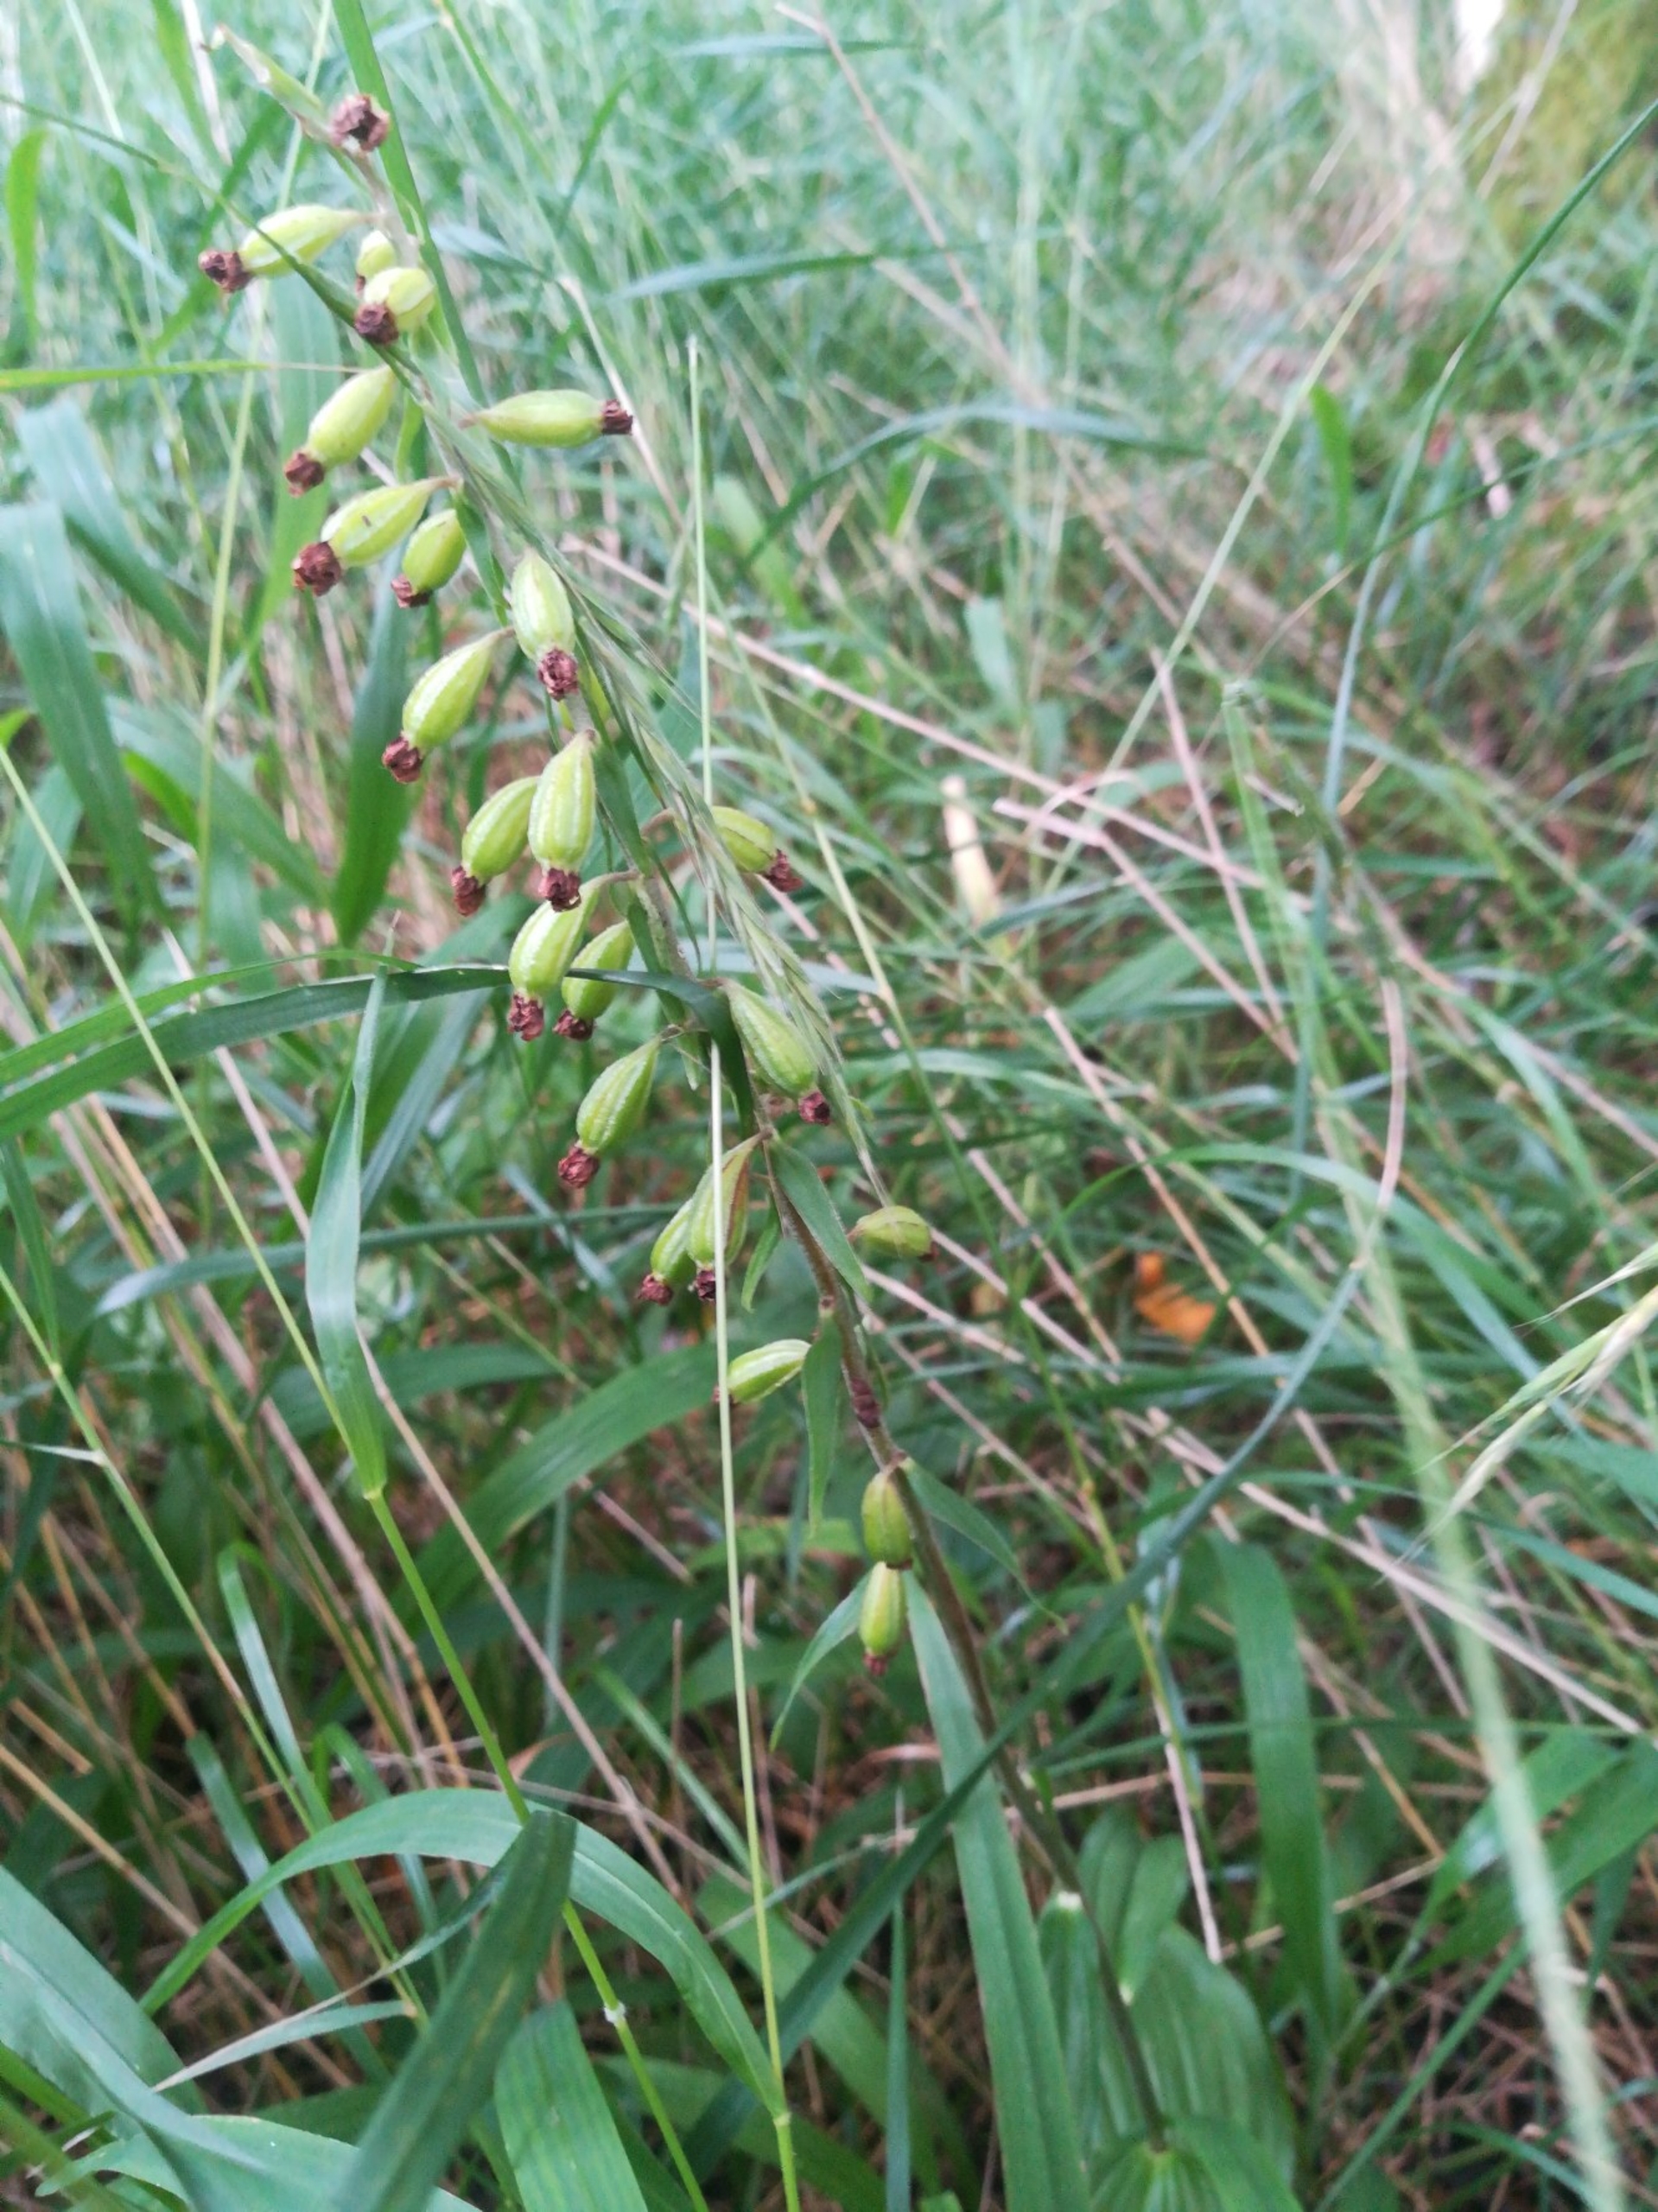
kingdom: Plantae
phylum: Tracheophyta
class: Liliopsida
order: Asparagales
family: Orchidaceae
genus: Epipactis
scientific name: Epipactis helleborine
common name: Skov-hullæbe
